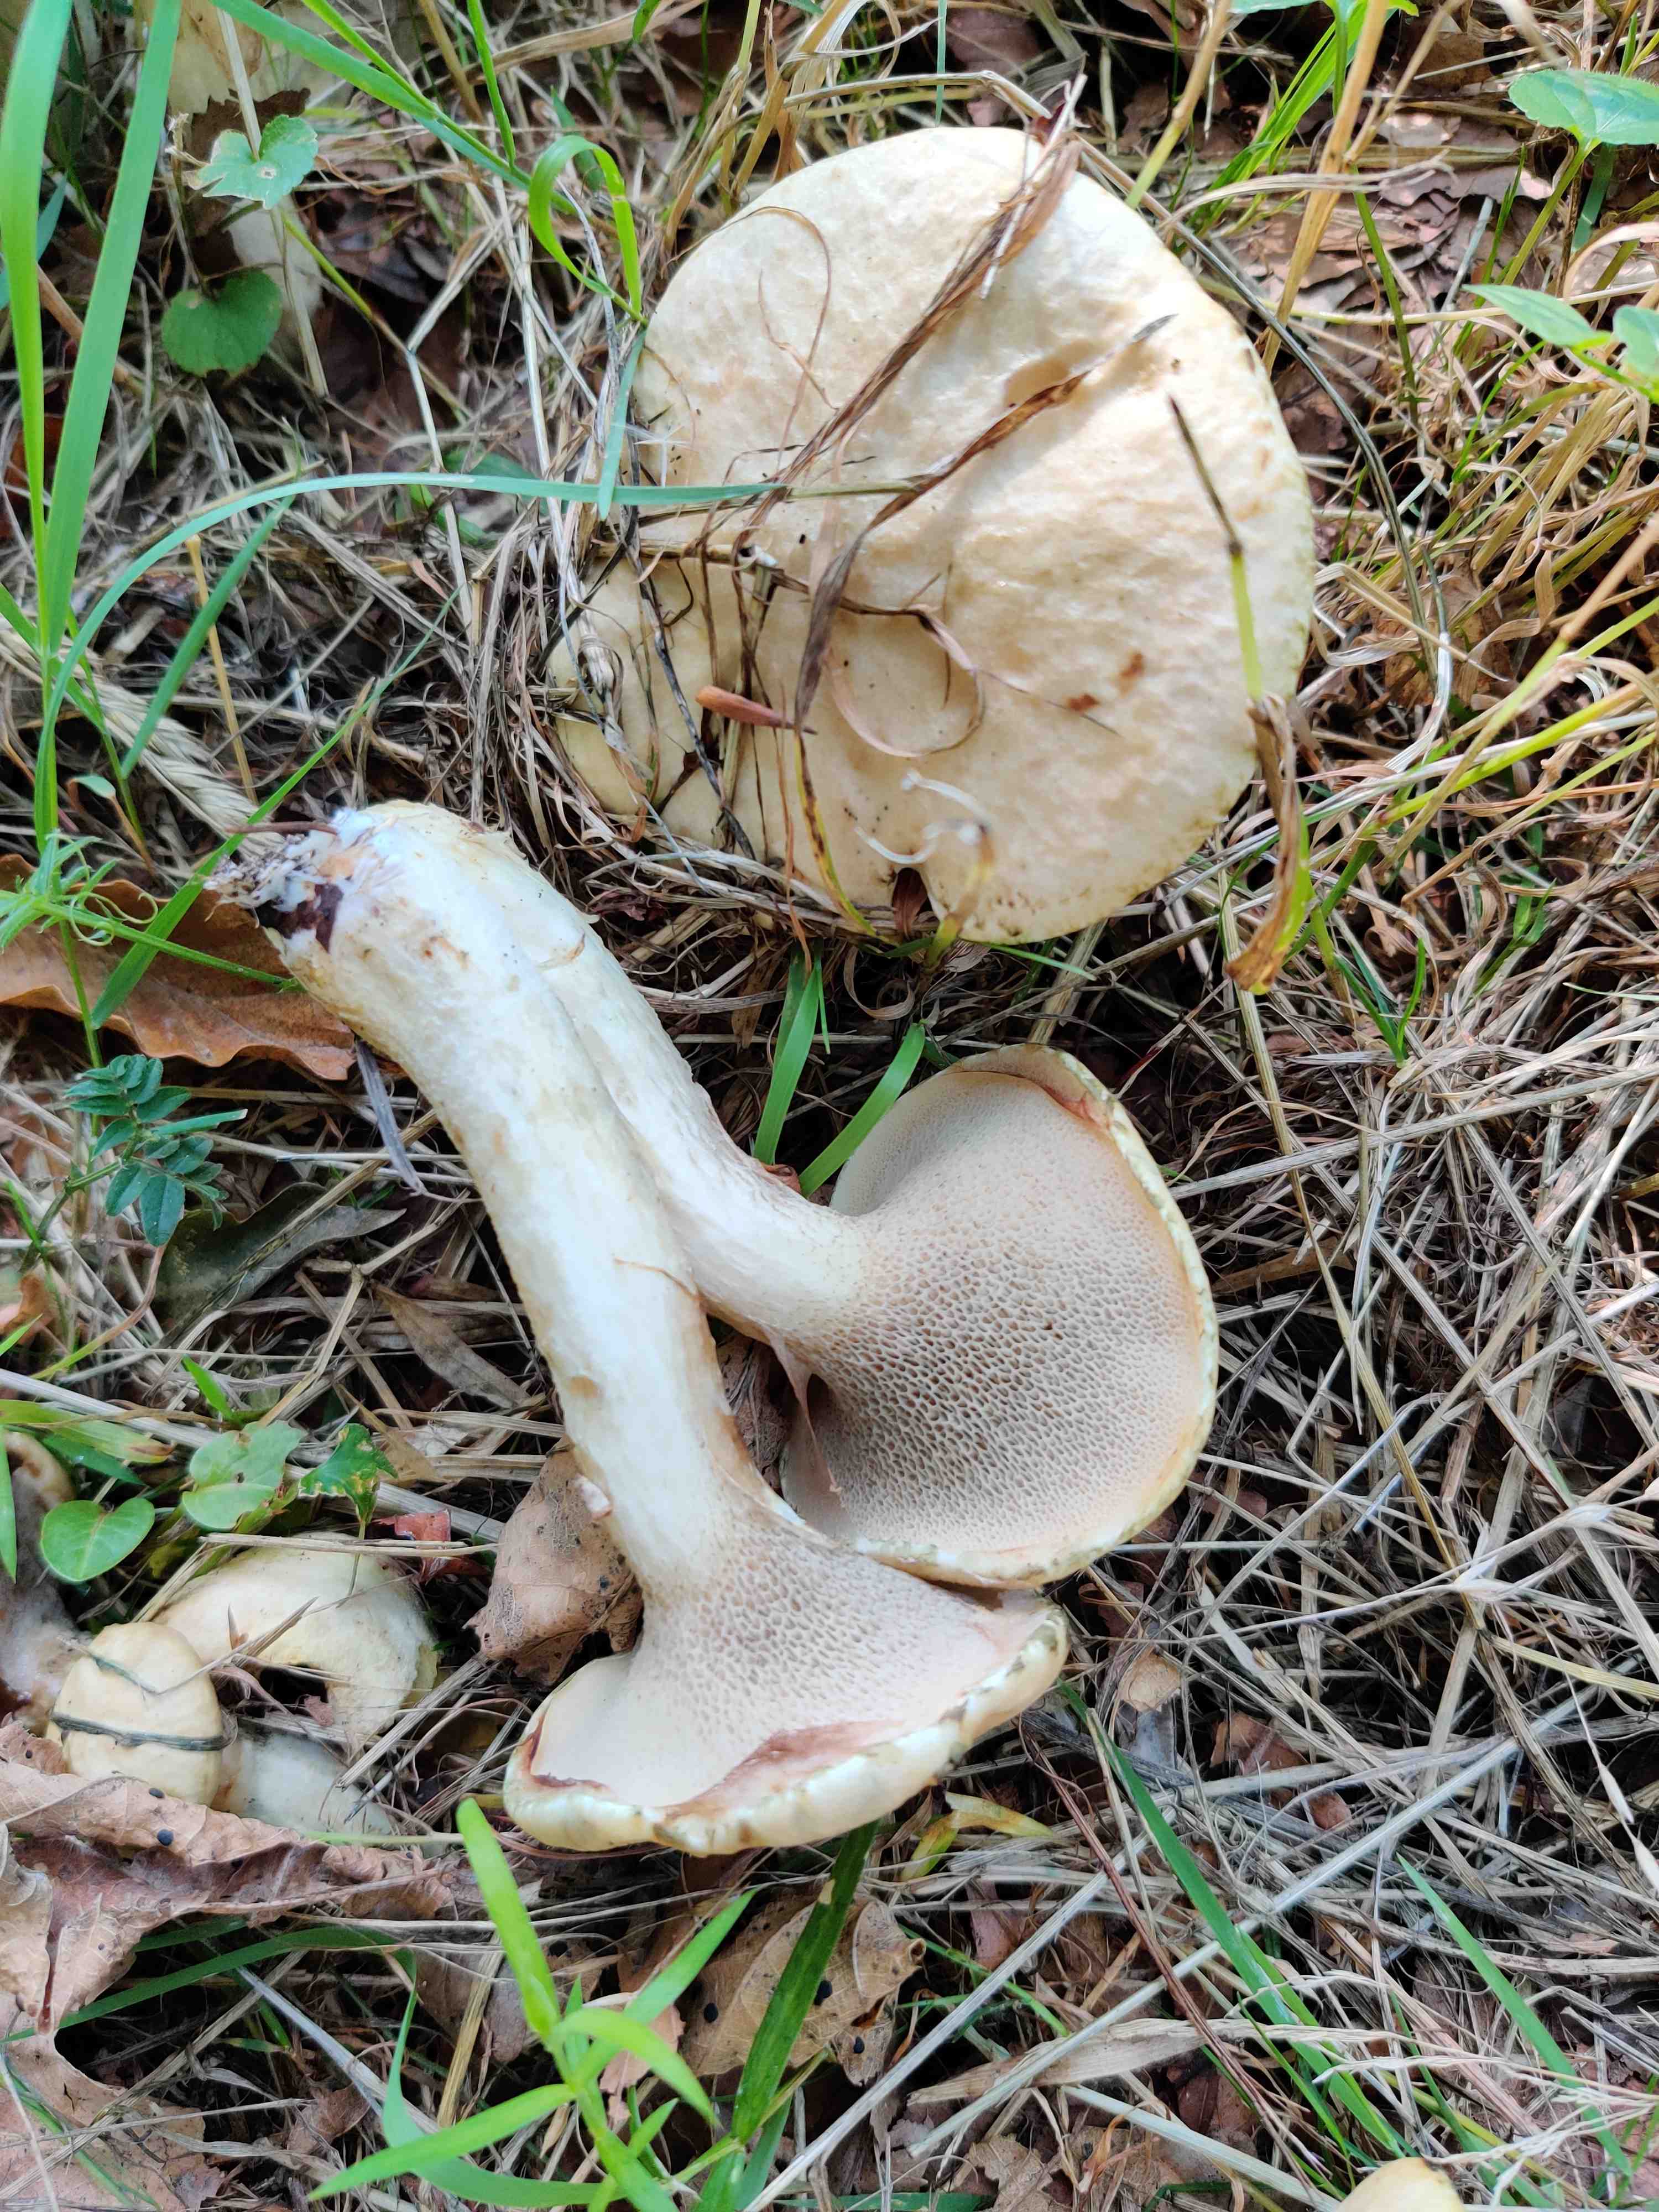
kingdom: Fungi
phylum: Basidiomycota
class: Agaricomycetes
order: Boletales
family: Suillaceae
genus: Suillus
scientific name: Suillus viscidus
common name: olivengrå slimrørhat
